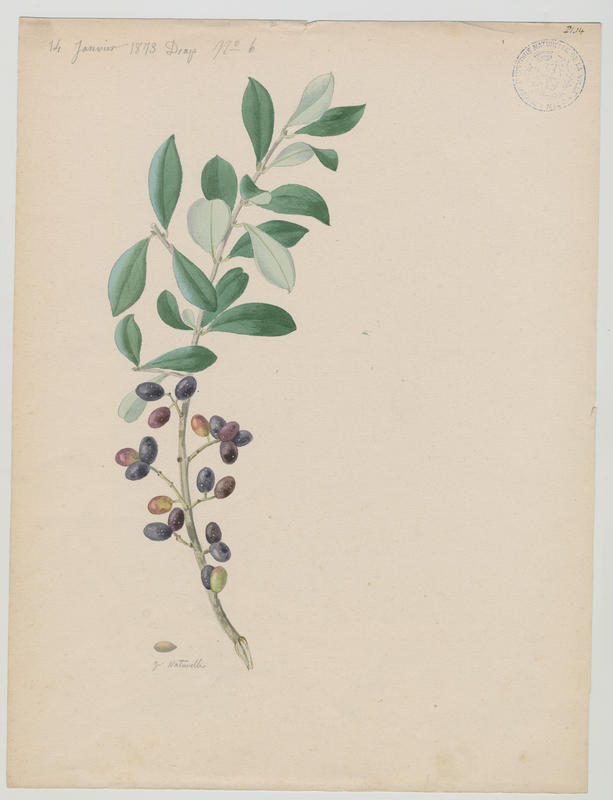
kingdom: Plantae
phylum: Tracheophyta
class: Magnoliopsida
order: Lamiales
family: Oleaceae
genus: Olea
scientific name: Olea europaea
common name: Olive
